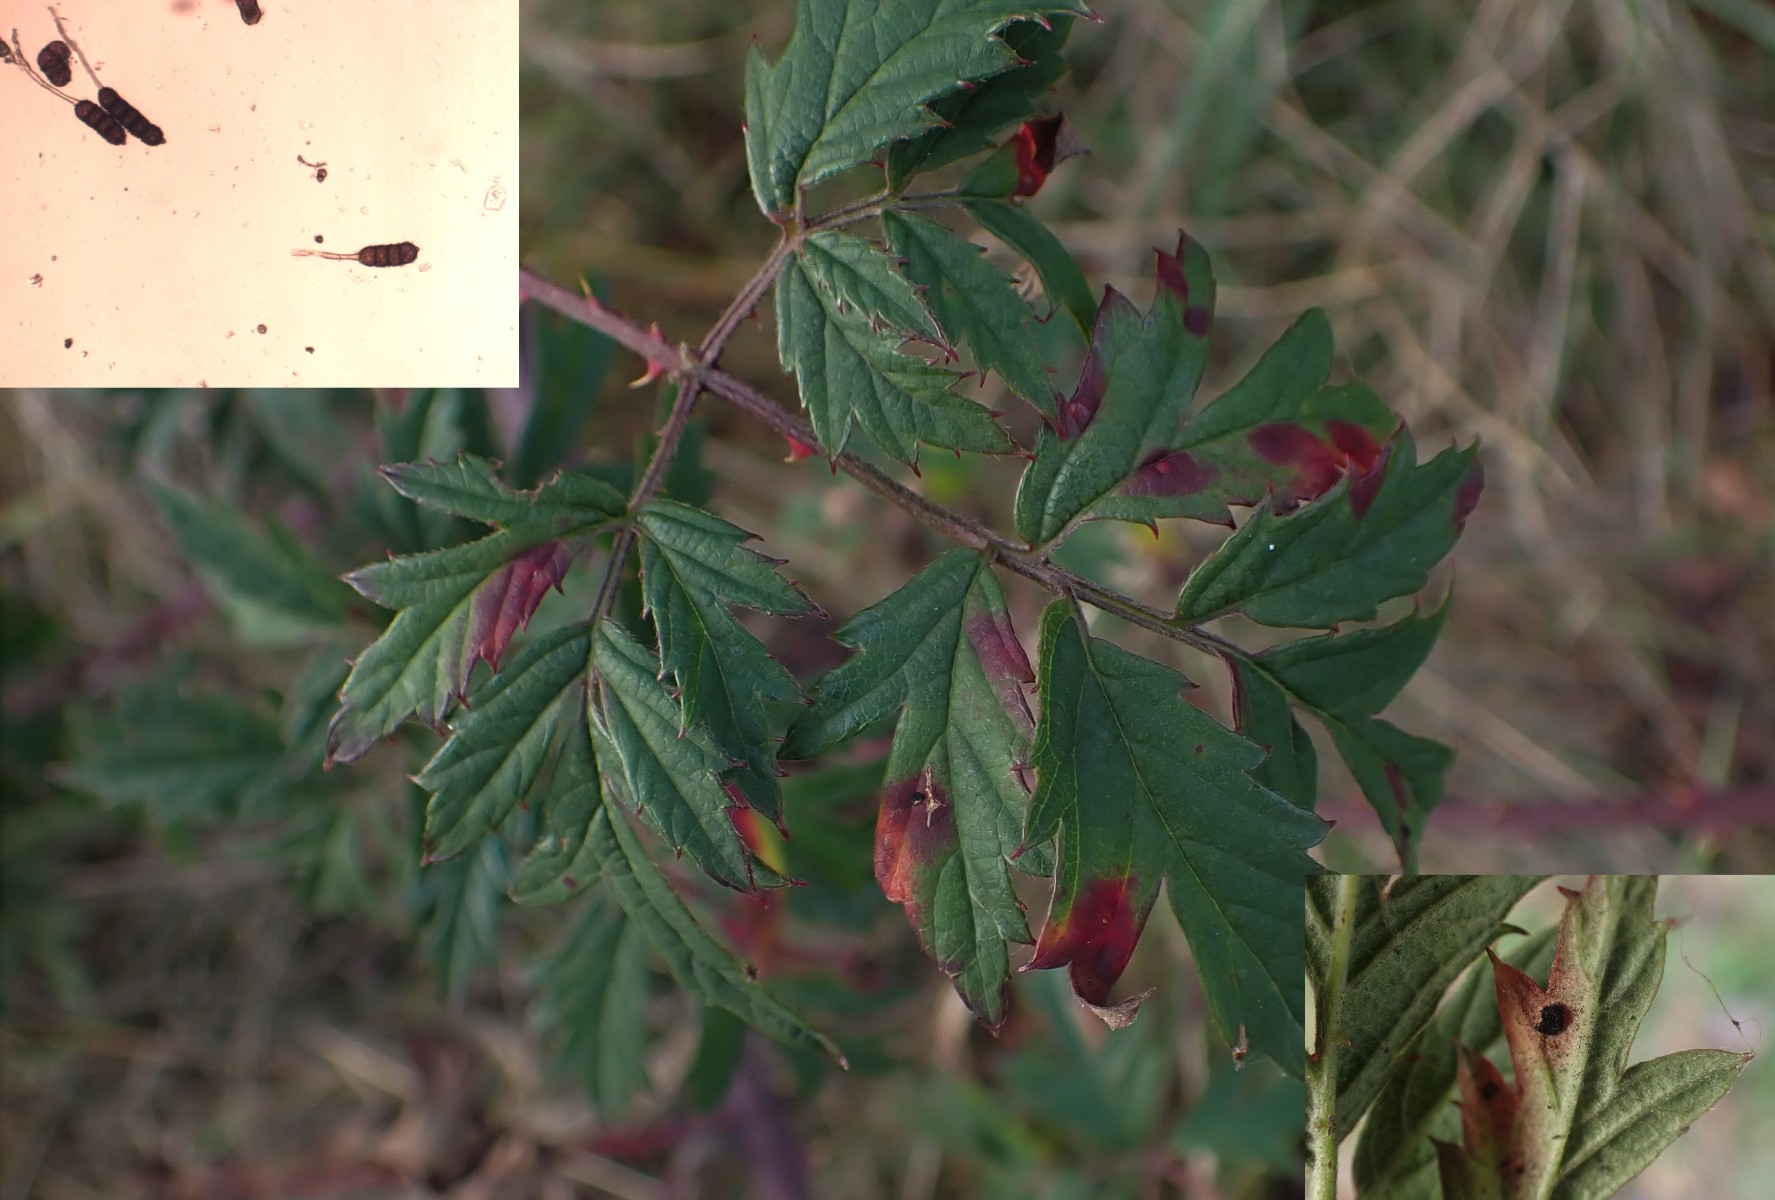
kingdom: Fungi
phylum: Basidiomycota
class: Pucciniomycetes
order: Pucciniales
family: Phragmidiaceae
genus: Phragmidium
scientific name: Phragmidium violaceum
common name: violet flercellerust
